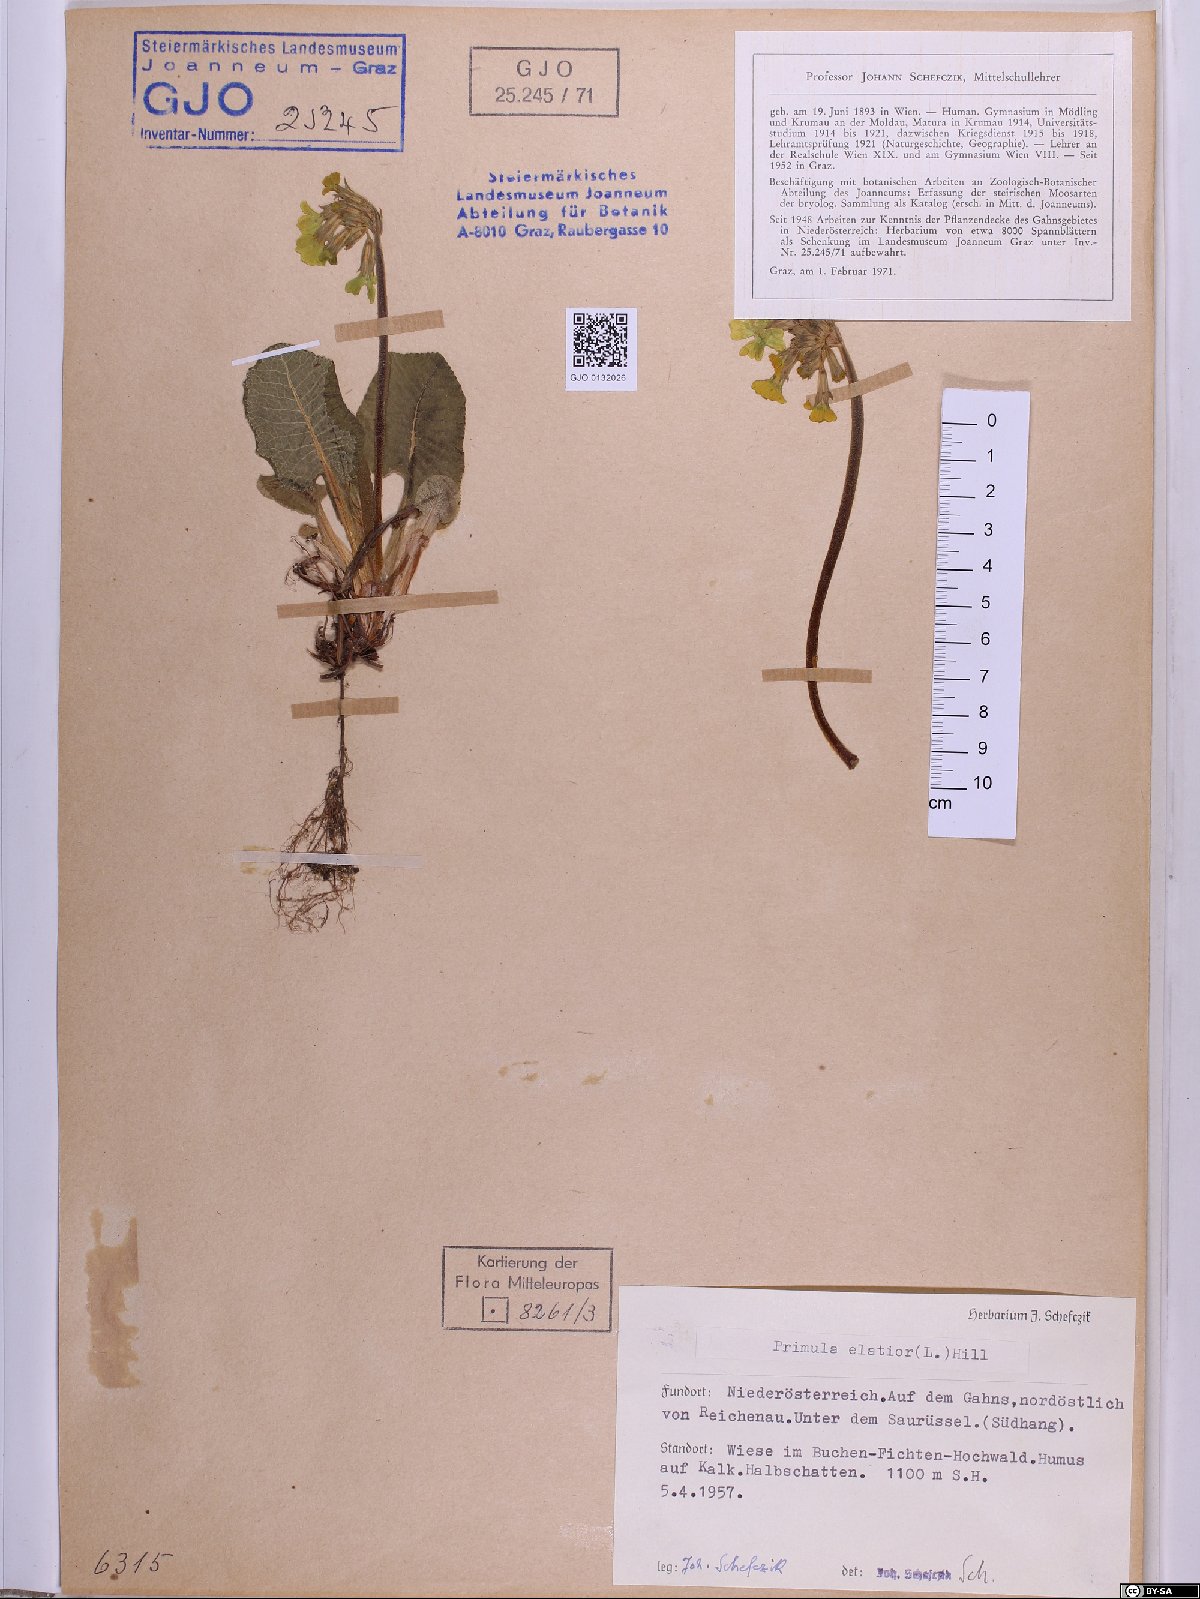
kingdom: Plantae
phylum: Tracheophyta
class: Magnoliopsida
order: Ericales
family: Primulaceae
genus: Primula
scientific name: Primula elatior
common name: Oxlip
